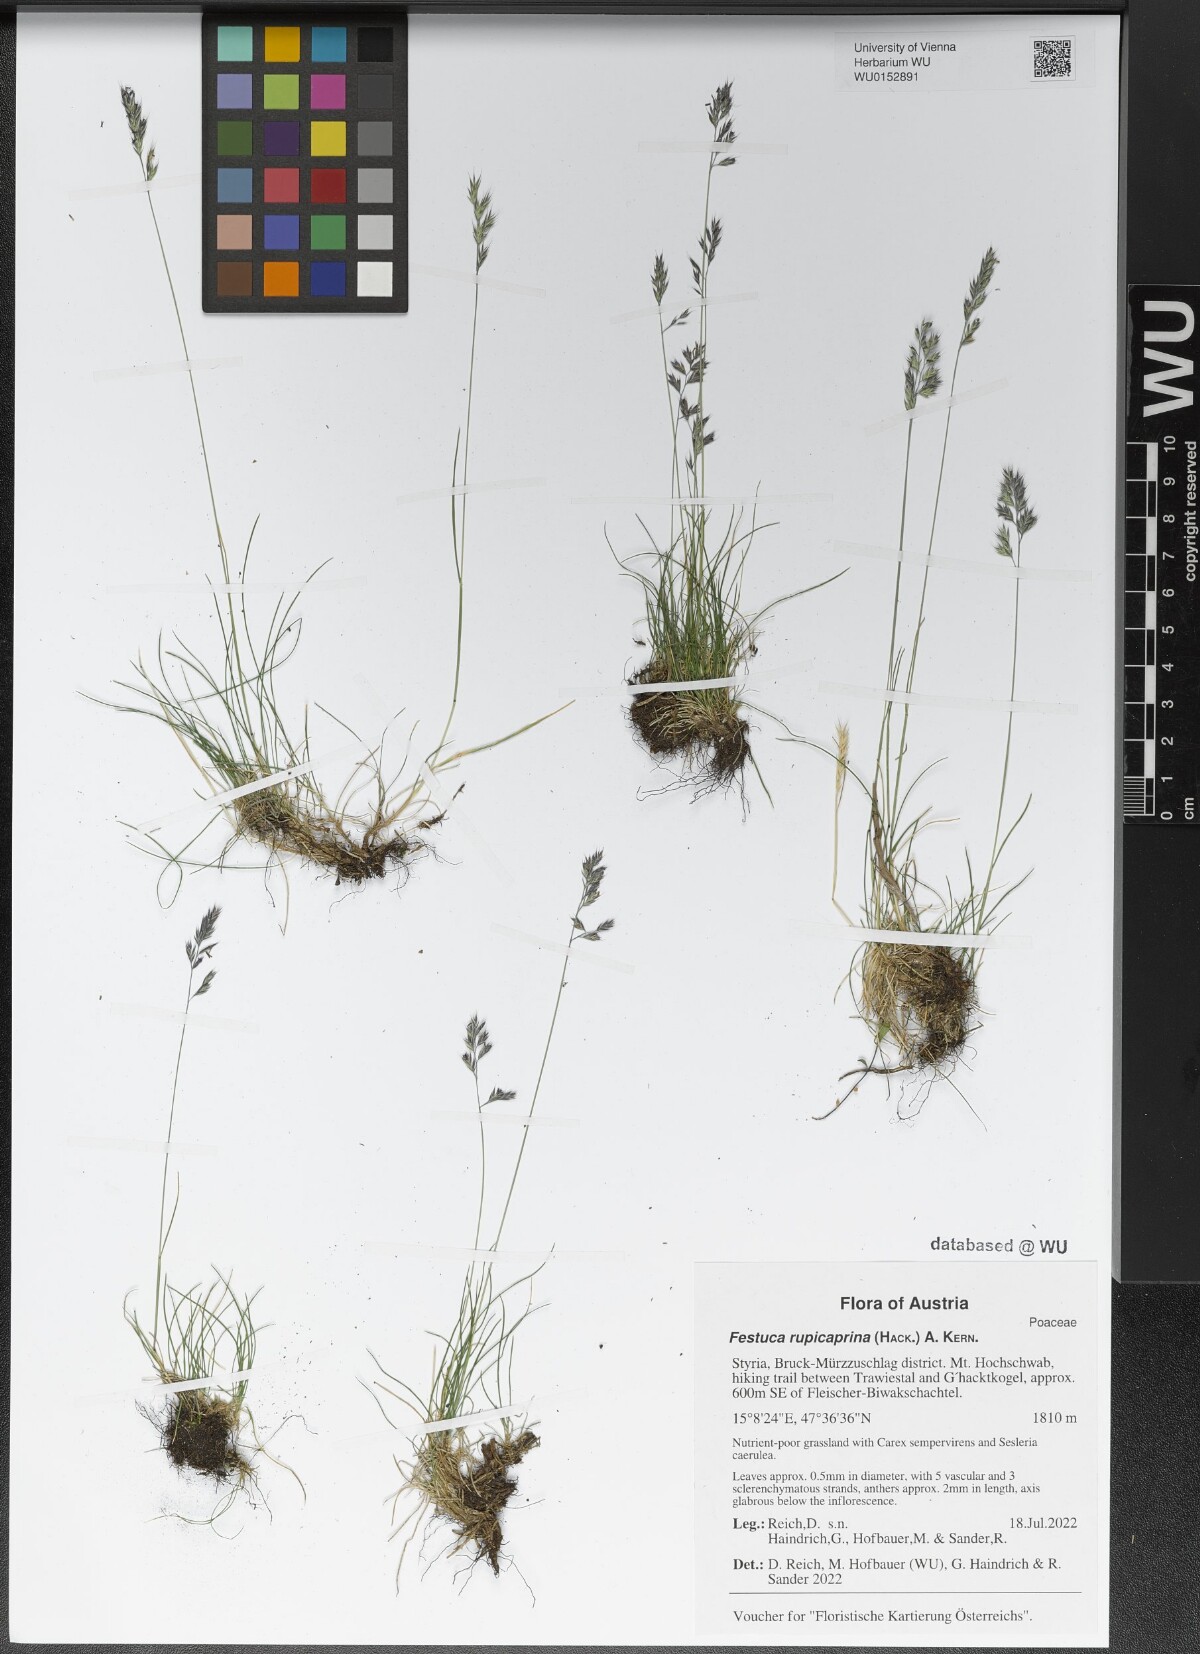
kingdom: Plantae
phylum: Tracheophyta
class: Liliopsida
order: Poales
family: Poaceae
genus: Festuca
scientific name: Festuca rupicaprina
